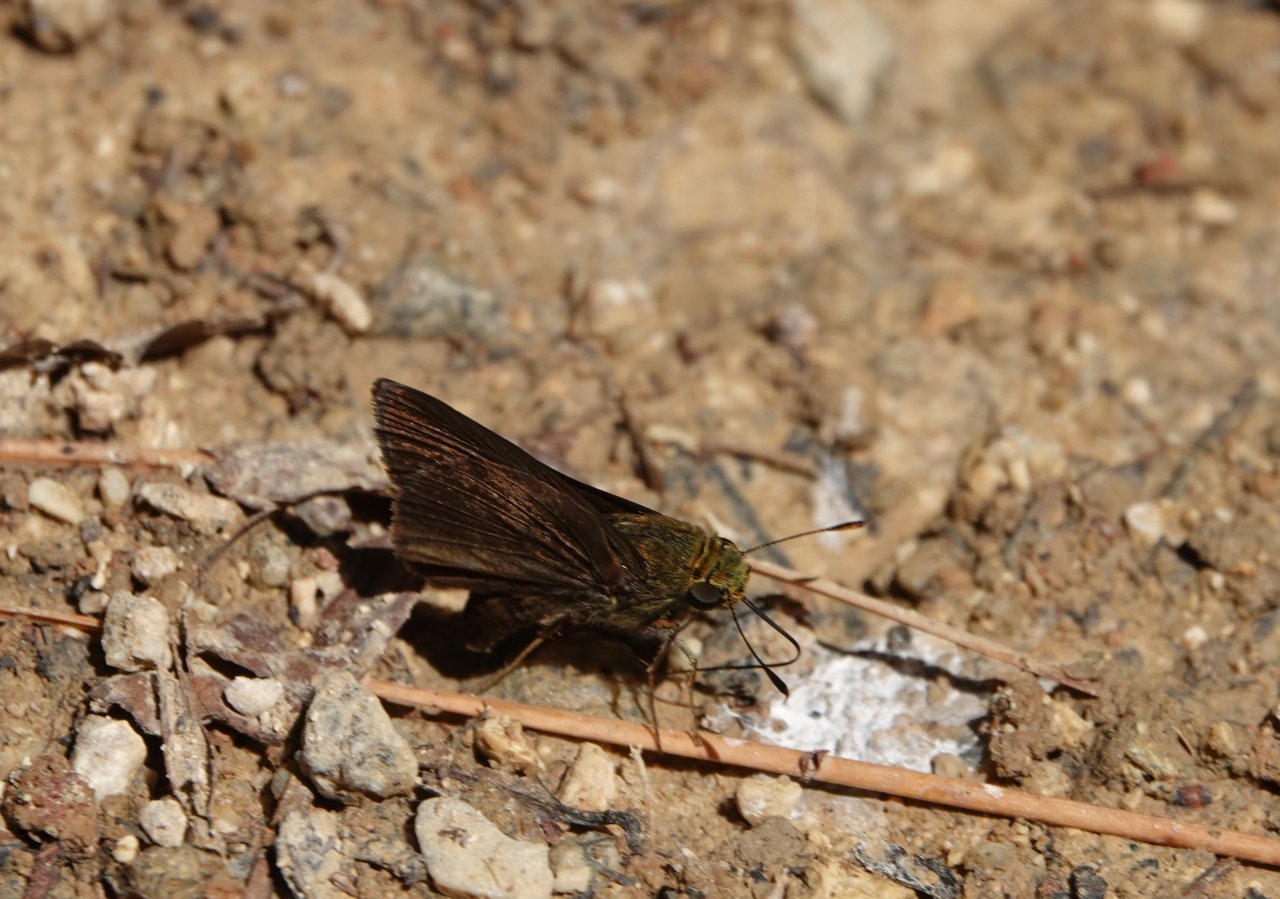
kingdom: Animalia
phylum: Arthropoda
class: Insecta
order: Lepidoptera
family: Hesperiidae
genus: Euphyes
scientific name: Euphyes vestris
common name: Dun Skipper
